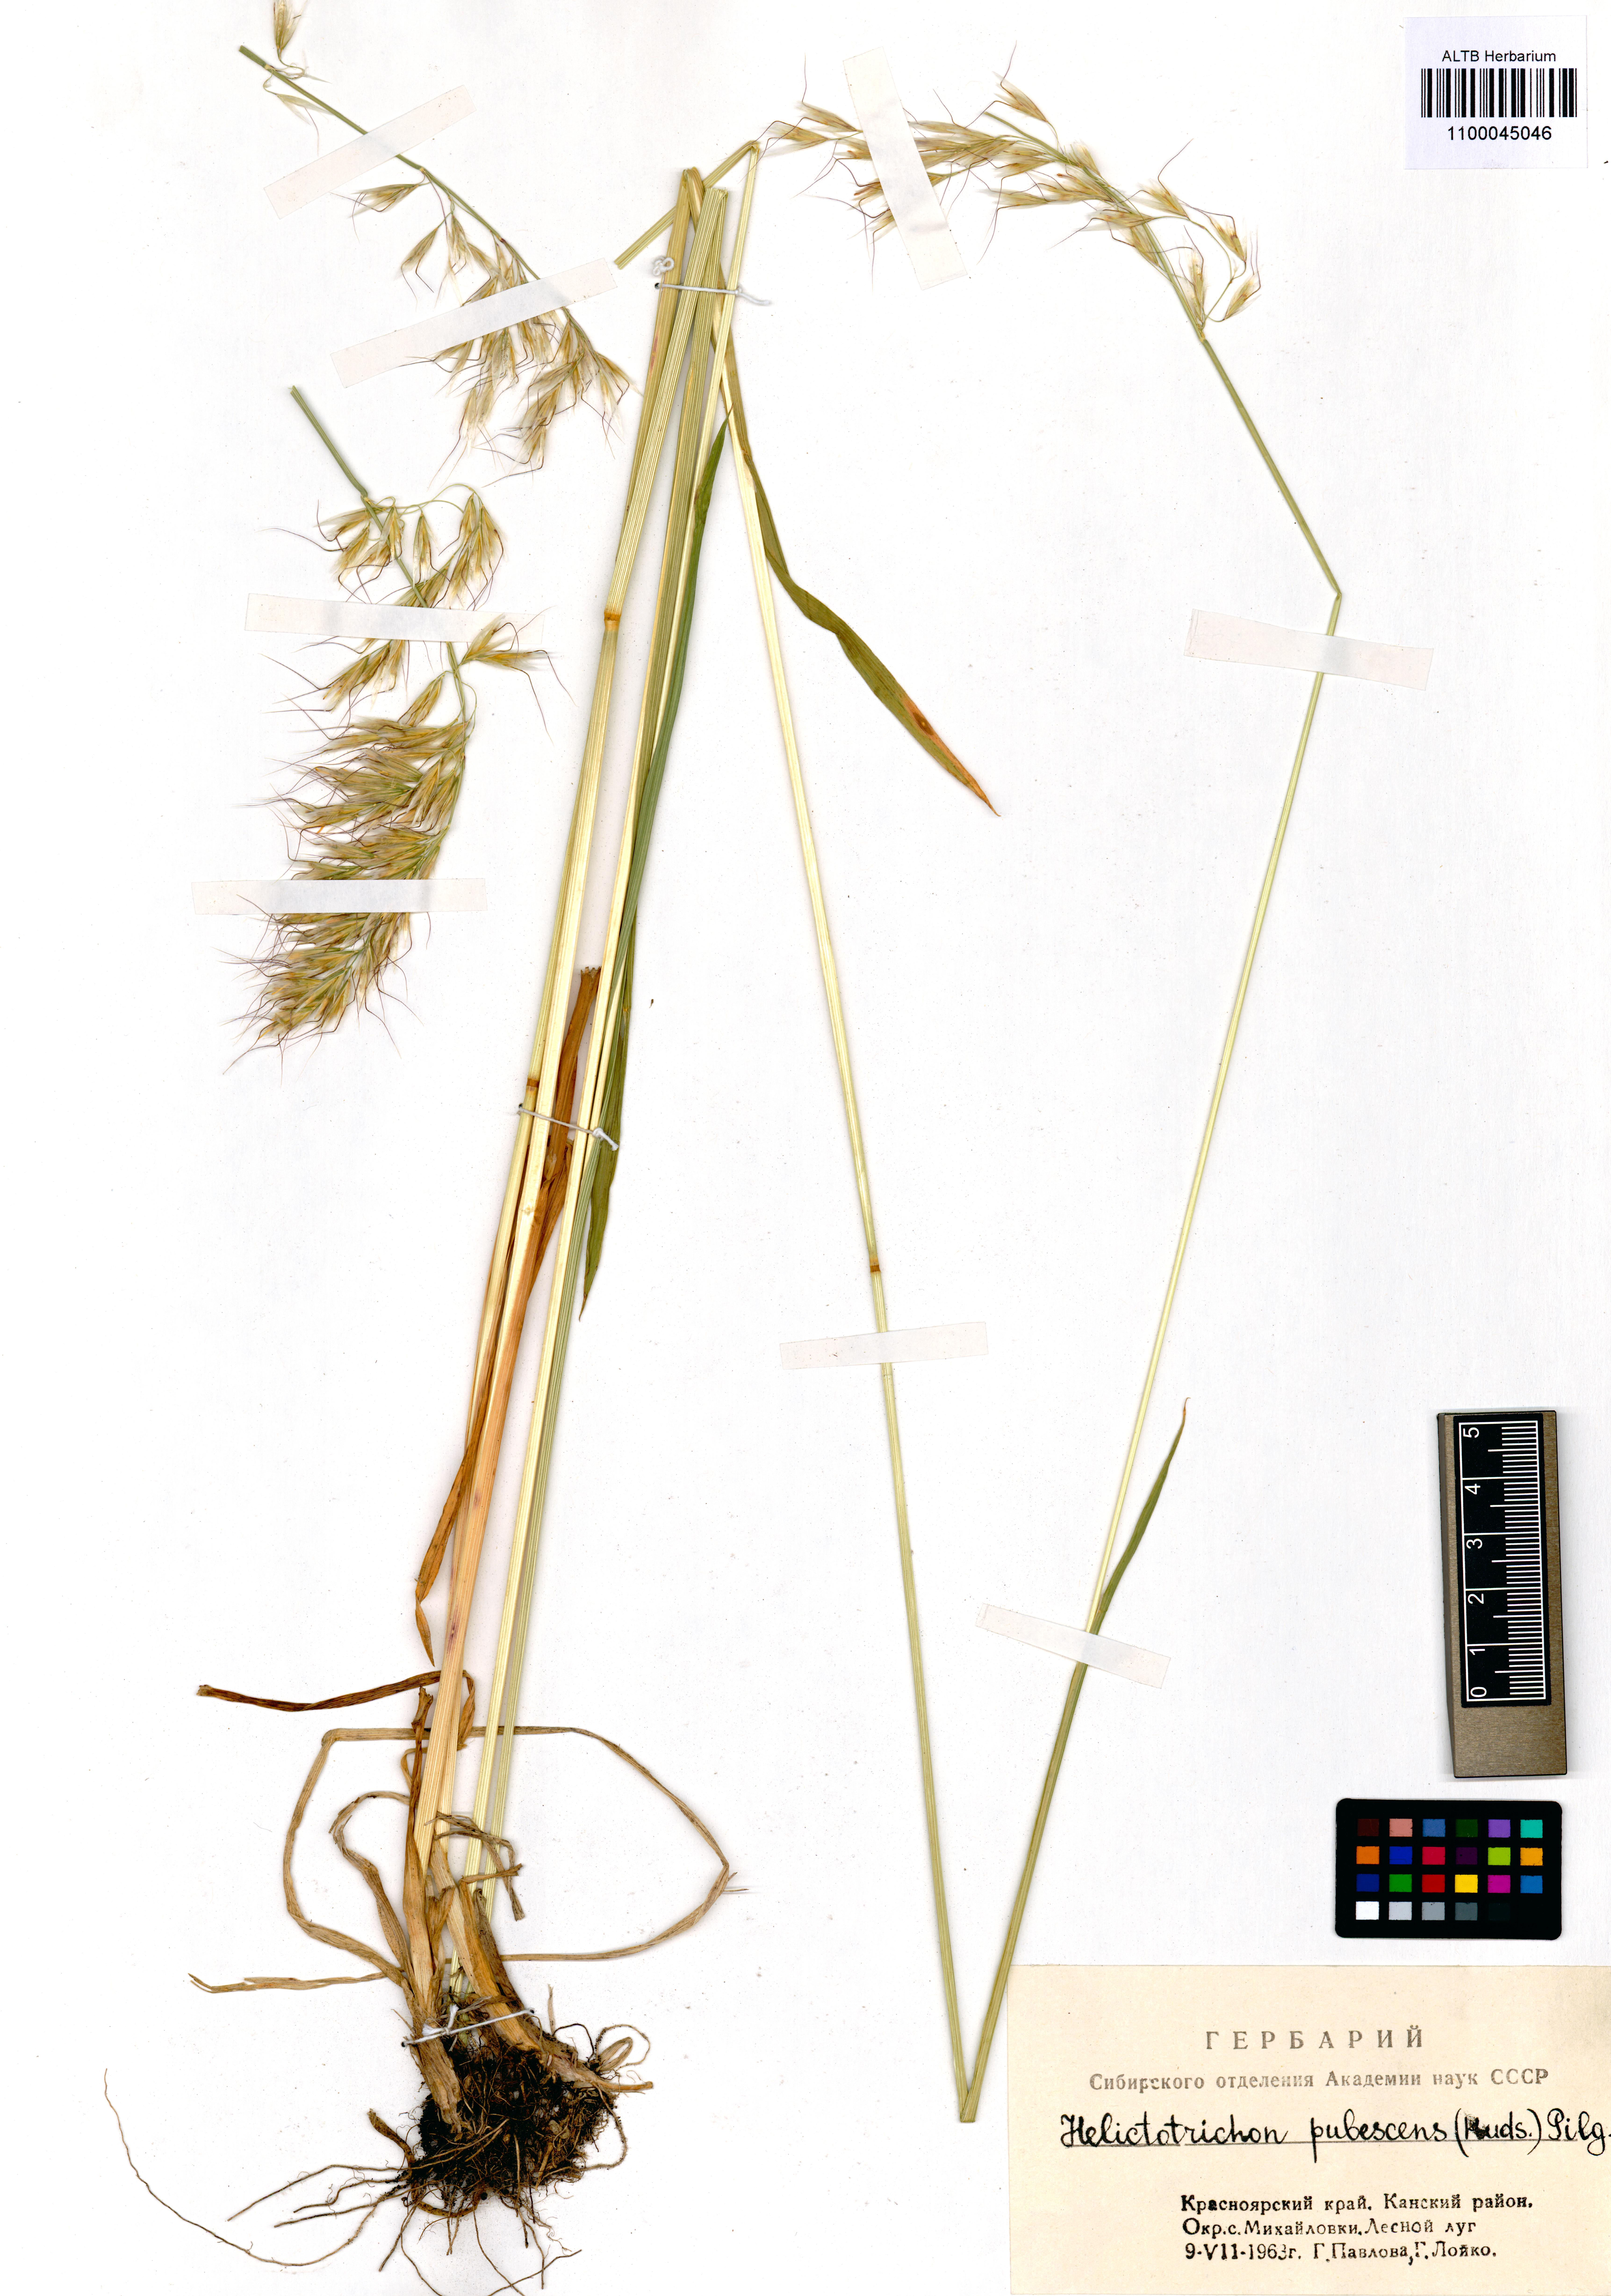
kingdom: Plantae
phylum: Tracheophyta
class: Liliopsida
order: Poales
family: Poaceae
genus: Avenula
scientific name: Avenula pubescens
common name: Downy alpine oatgrass
